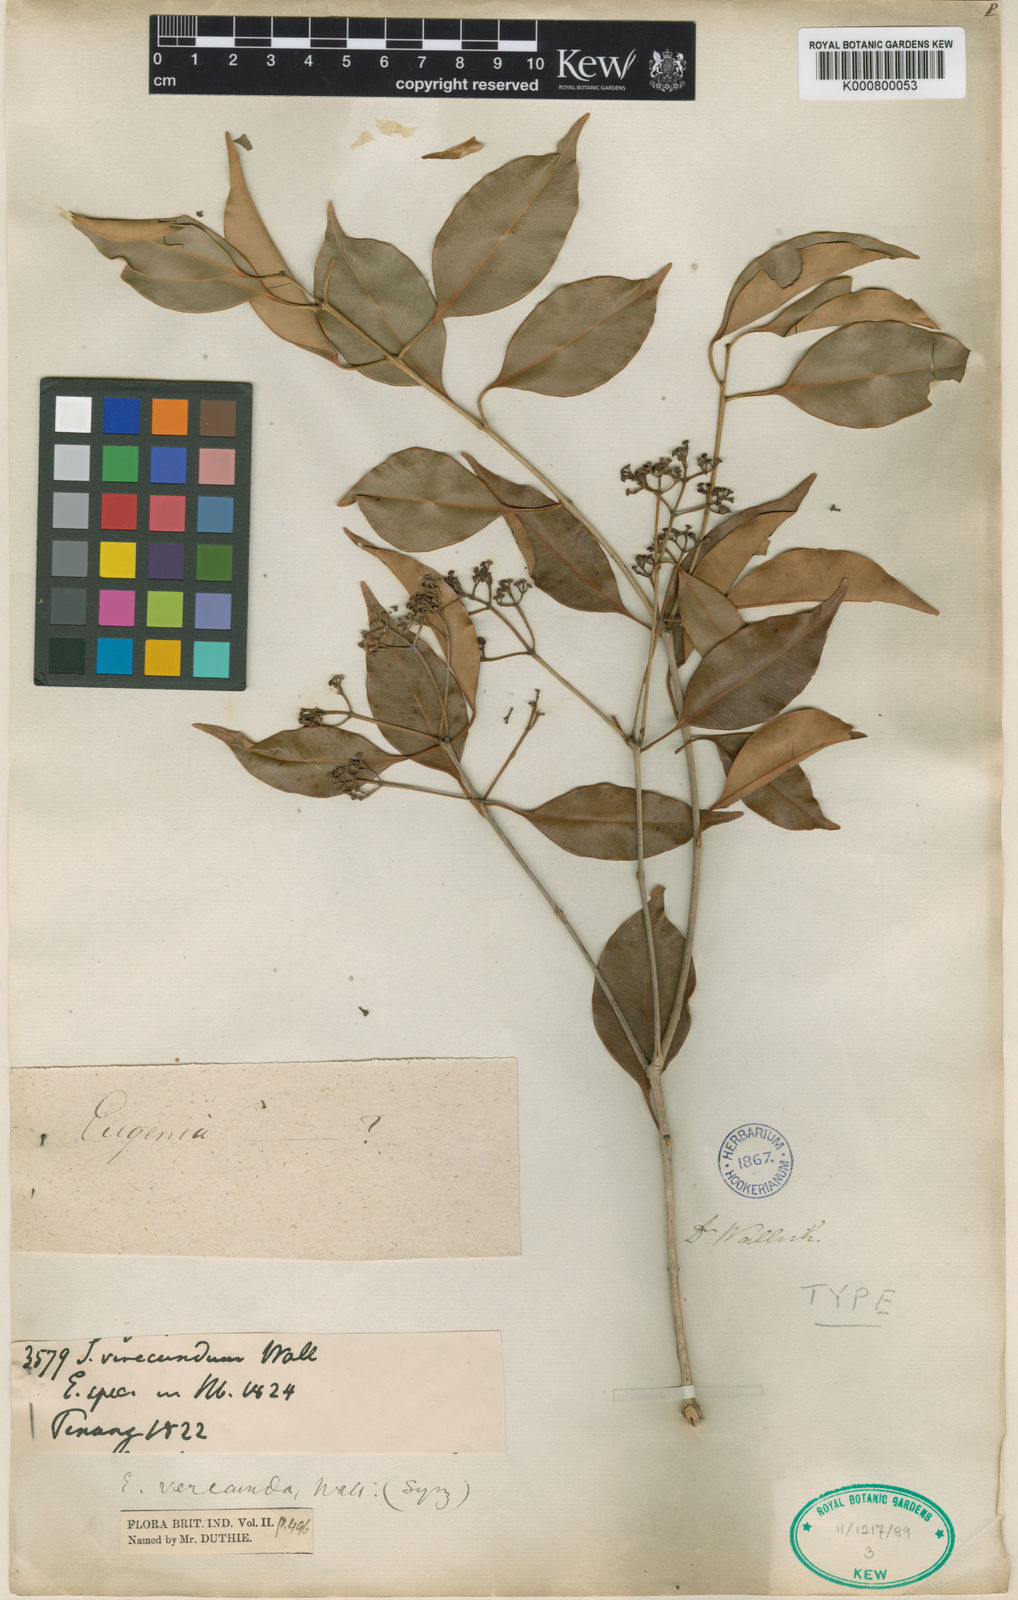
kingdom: Plantae
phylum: Tracheophyta
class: Magnoliopsida
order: Myrtales
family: Myrtaceae
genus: Syzygium
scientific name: Syzygium leucoxylon
